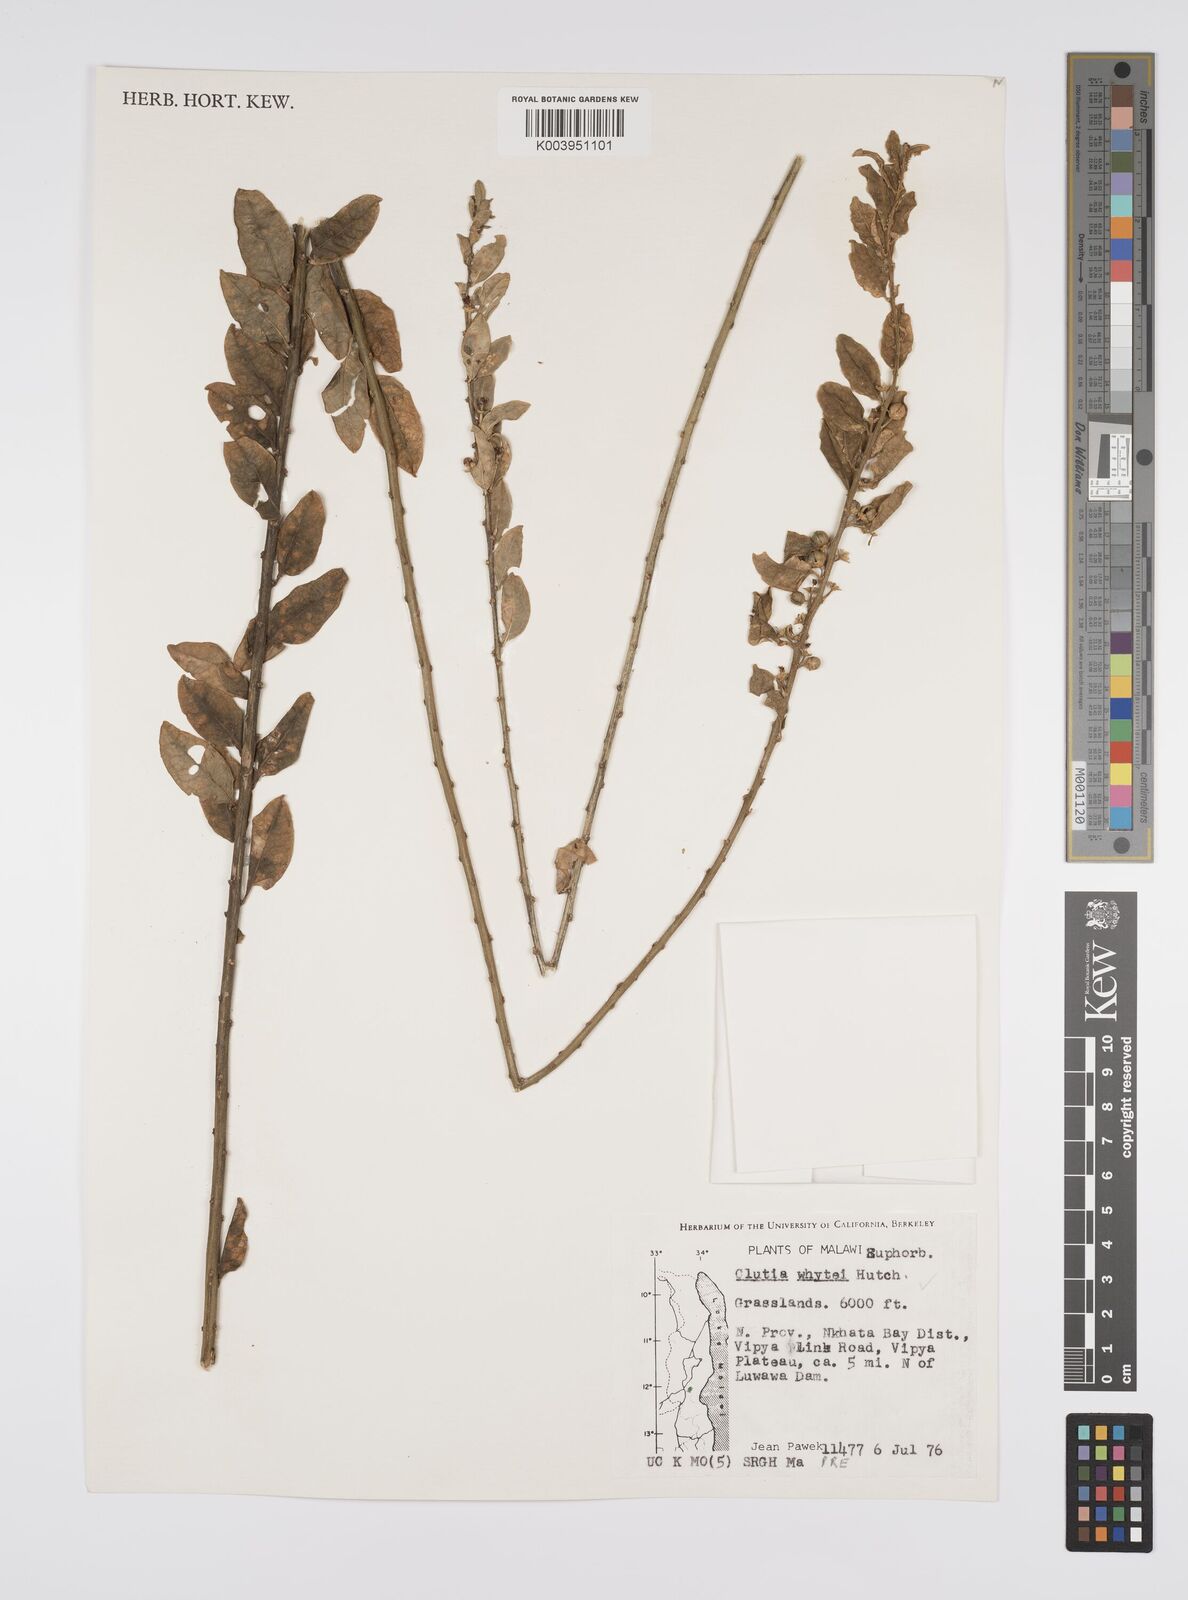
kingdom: Plantae
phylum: Tracheophyta
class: Magnoliopsida
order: Malpighiales
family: Peraceae
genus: Clutia
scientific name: Clutia whytei
